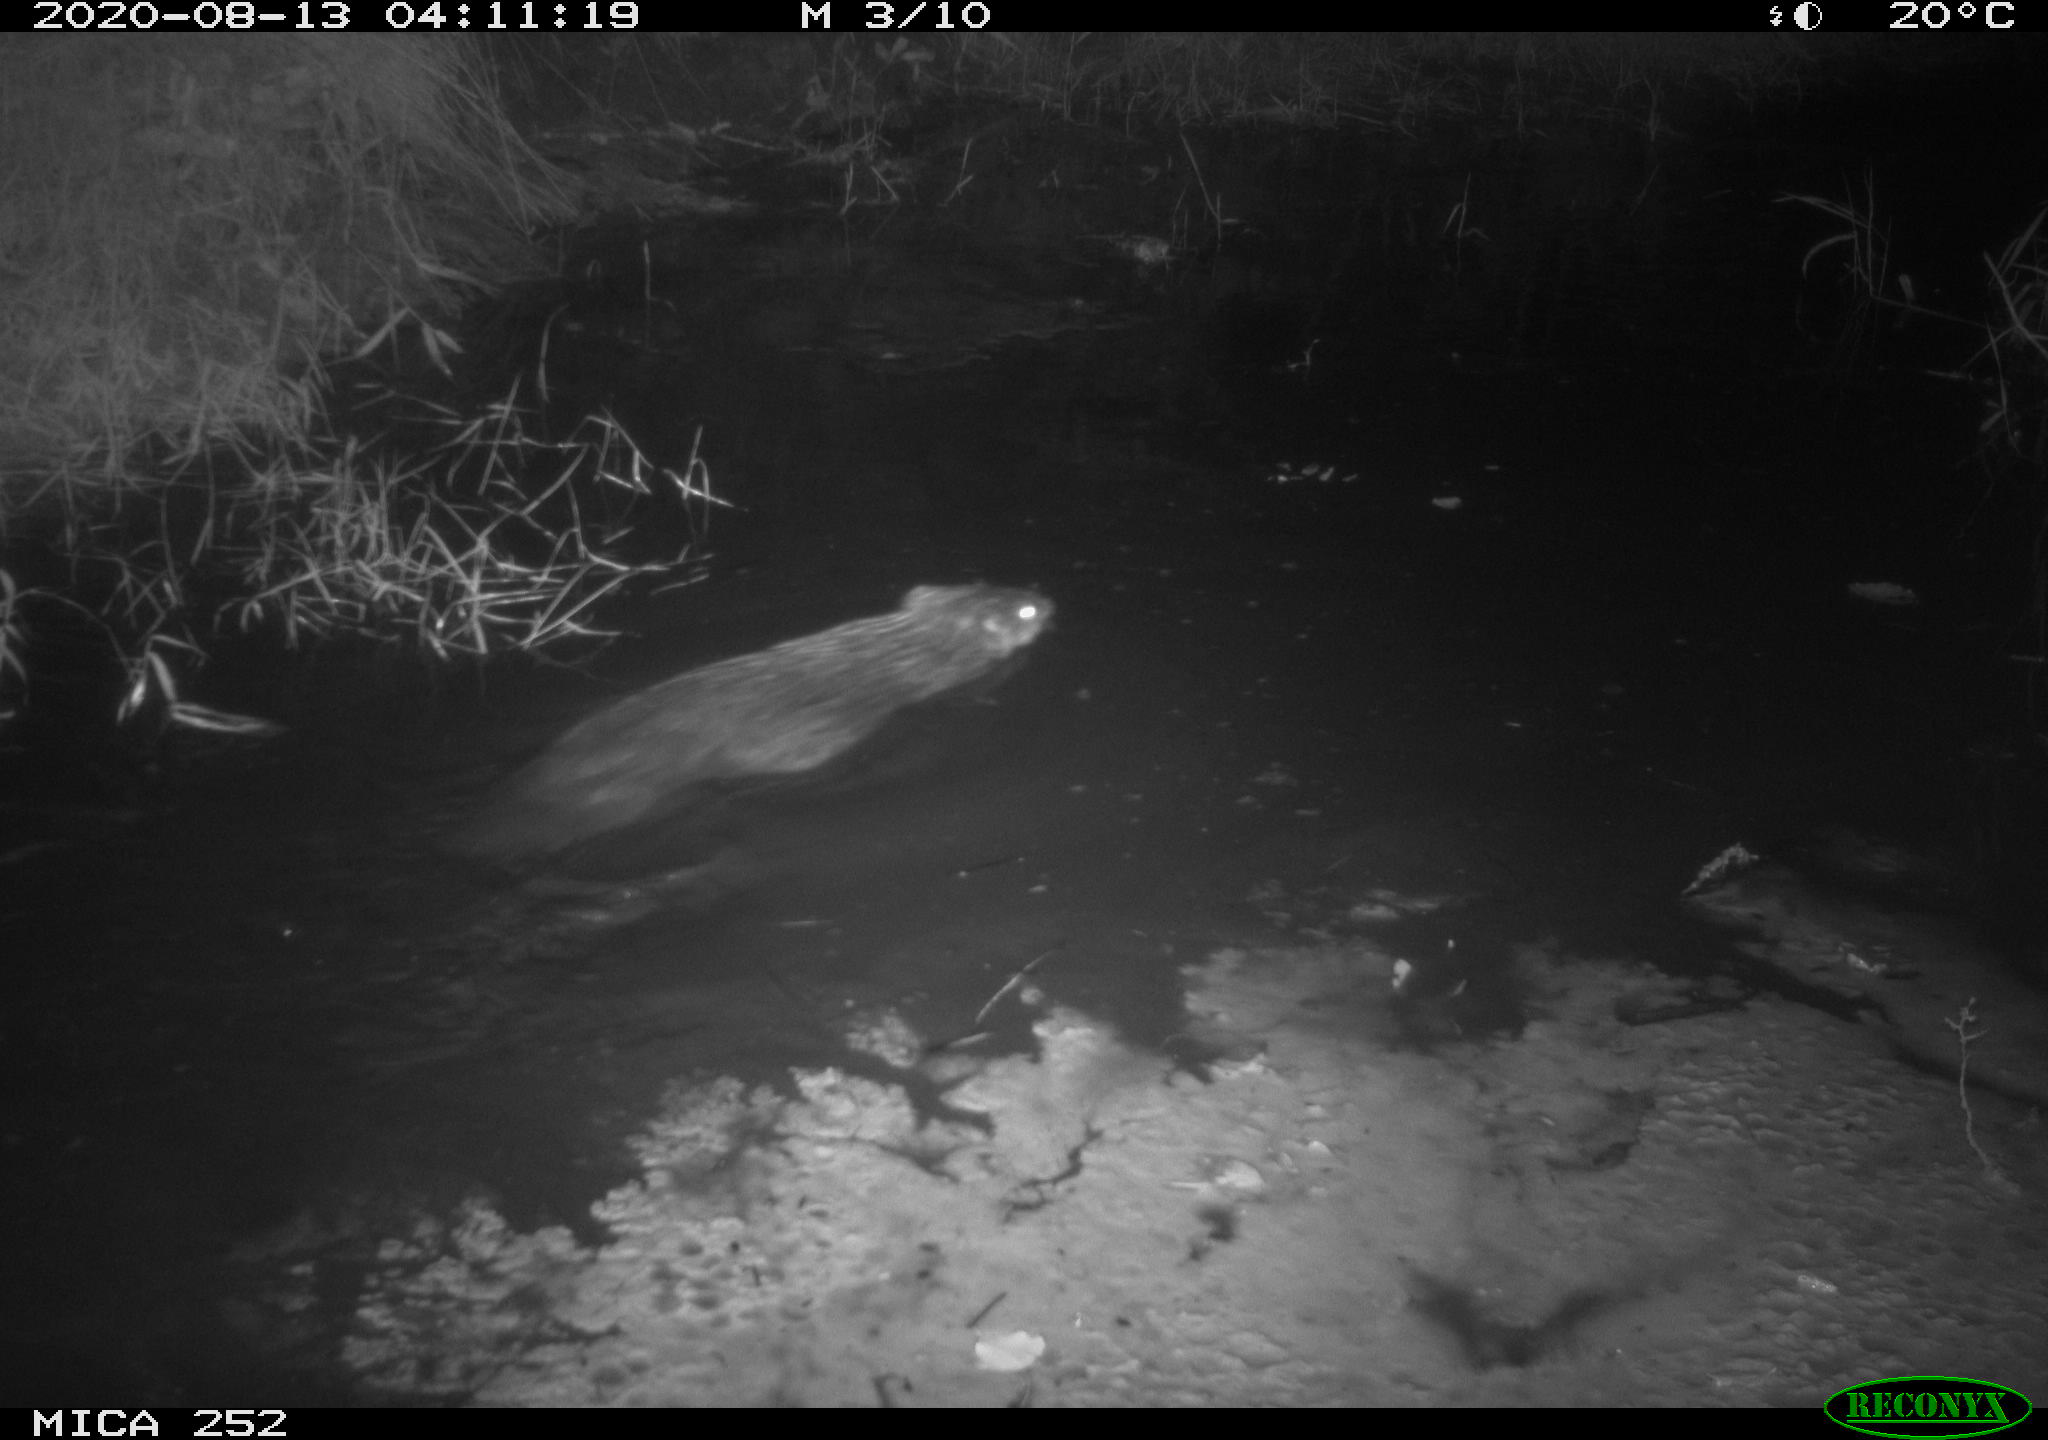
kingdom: Animalia
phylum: Chordata
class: Mammalia
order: Rodentia
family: Castoridae
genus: Castor
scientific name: Castor fiber
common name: Eurasian beaver
